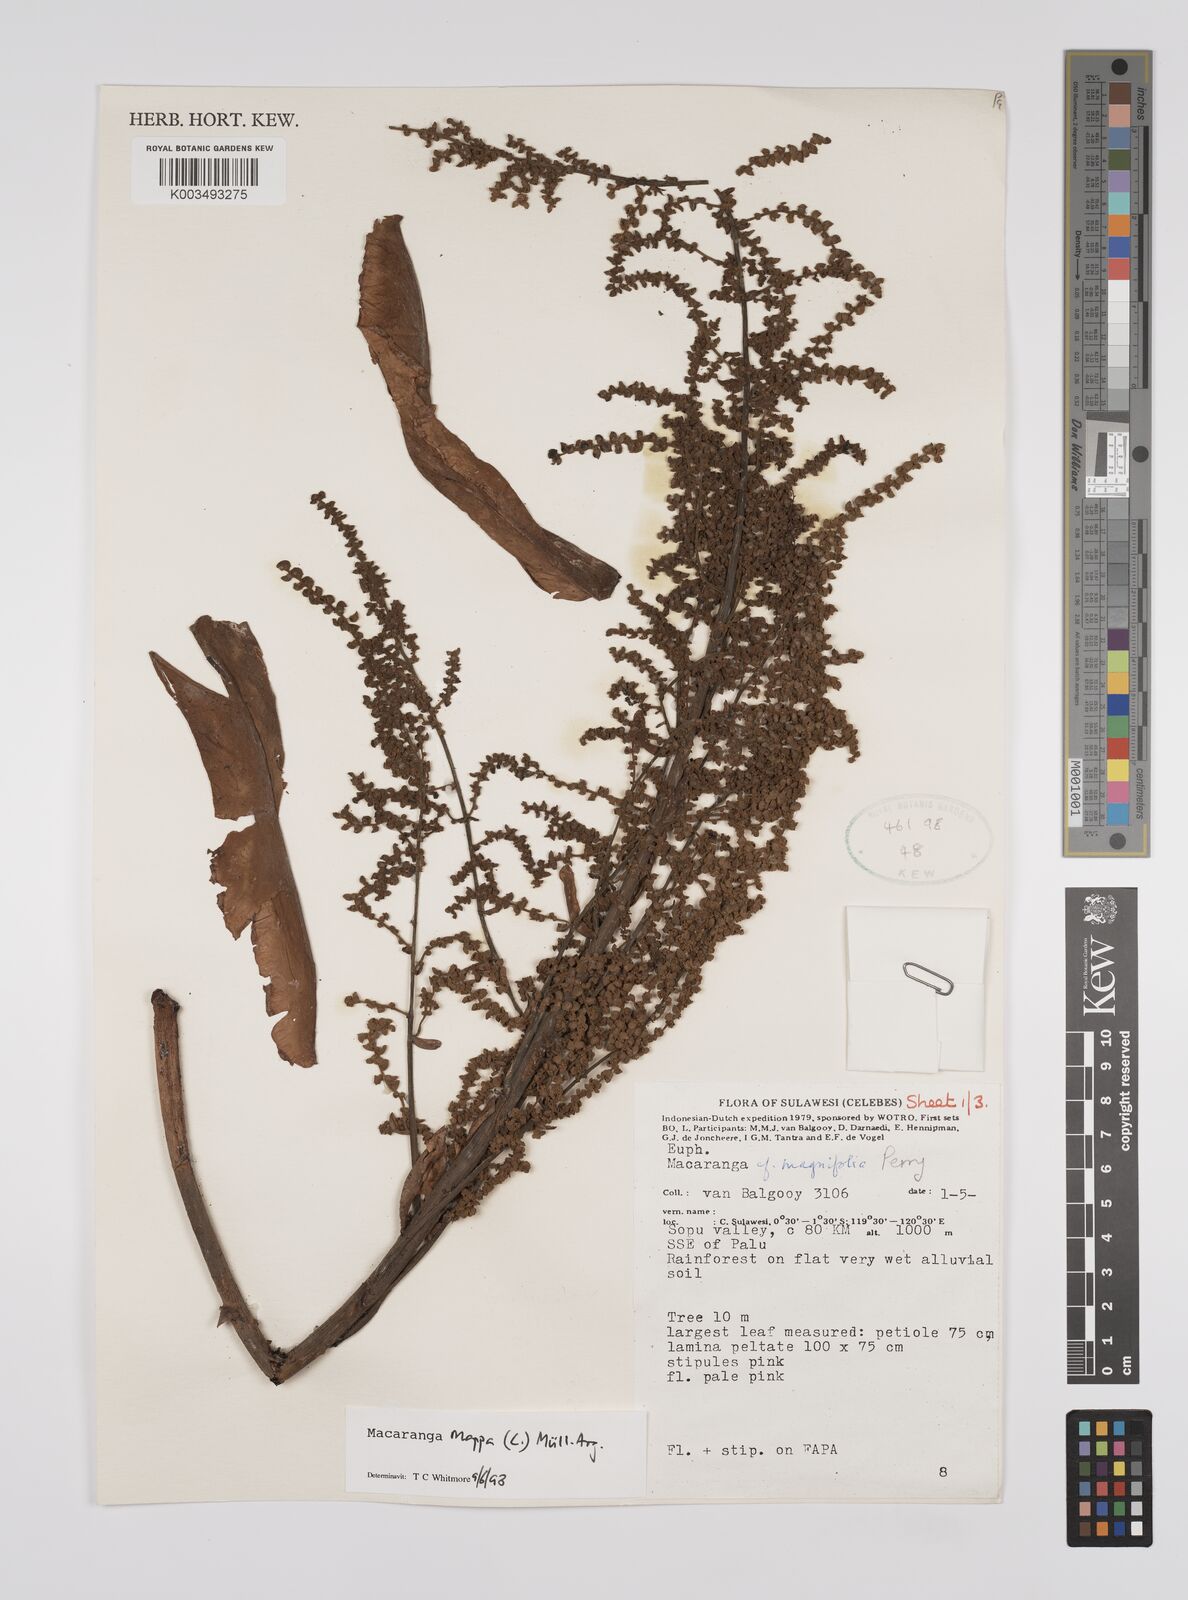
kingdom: Plantae
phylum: Tracheophyta
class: Magnoliopsida
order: Malpighiales
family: Euphorbiaceae
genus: Macaranga
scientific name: Macaranga mappa
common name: Pengua
